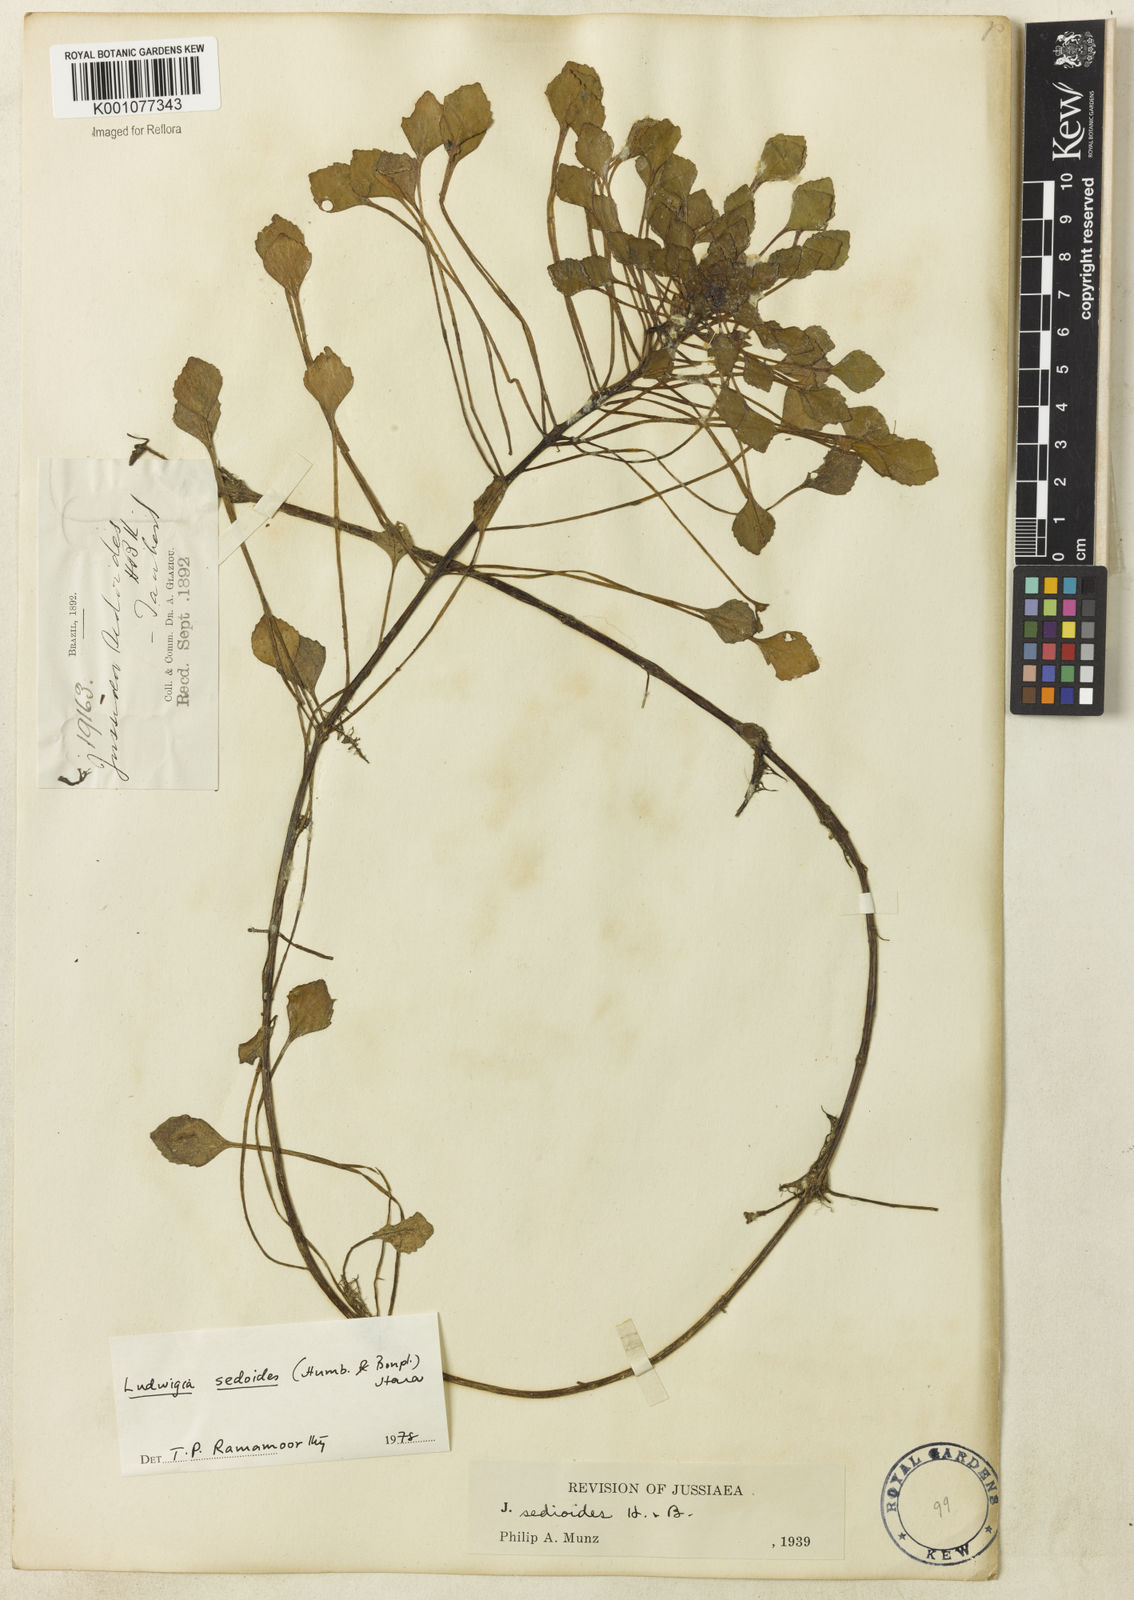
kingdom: Plantae
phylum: Tracheophyta
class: Magnoliopsida
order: Myrtales
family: Onagraceae
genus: Ludwigia
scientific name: Ludwigia sedoides
